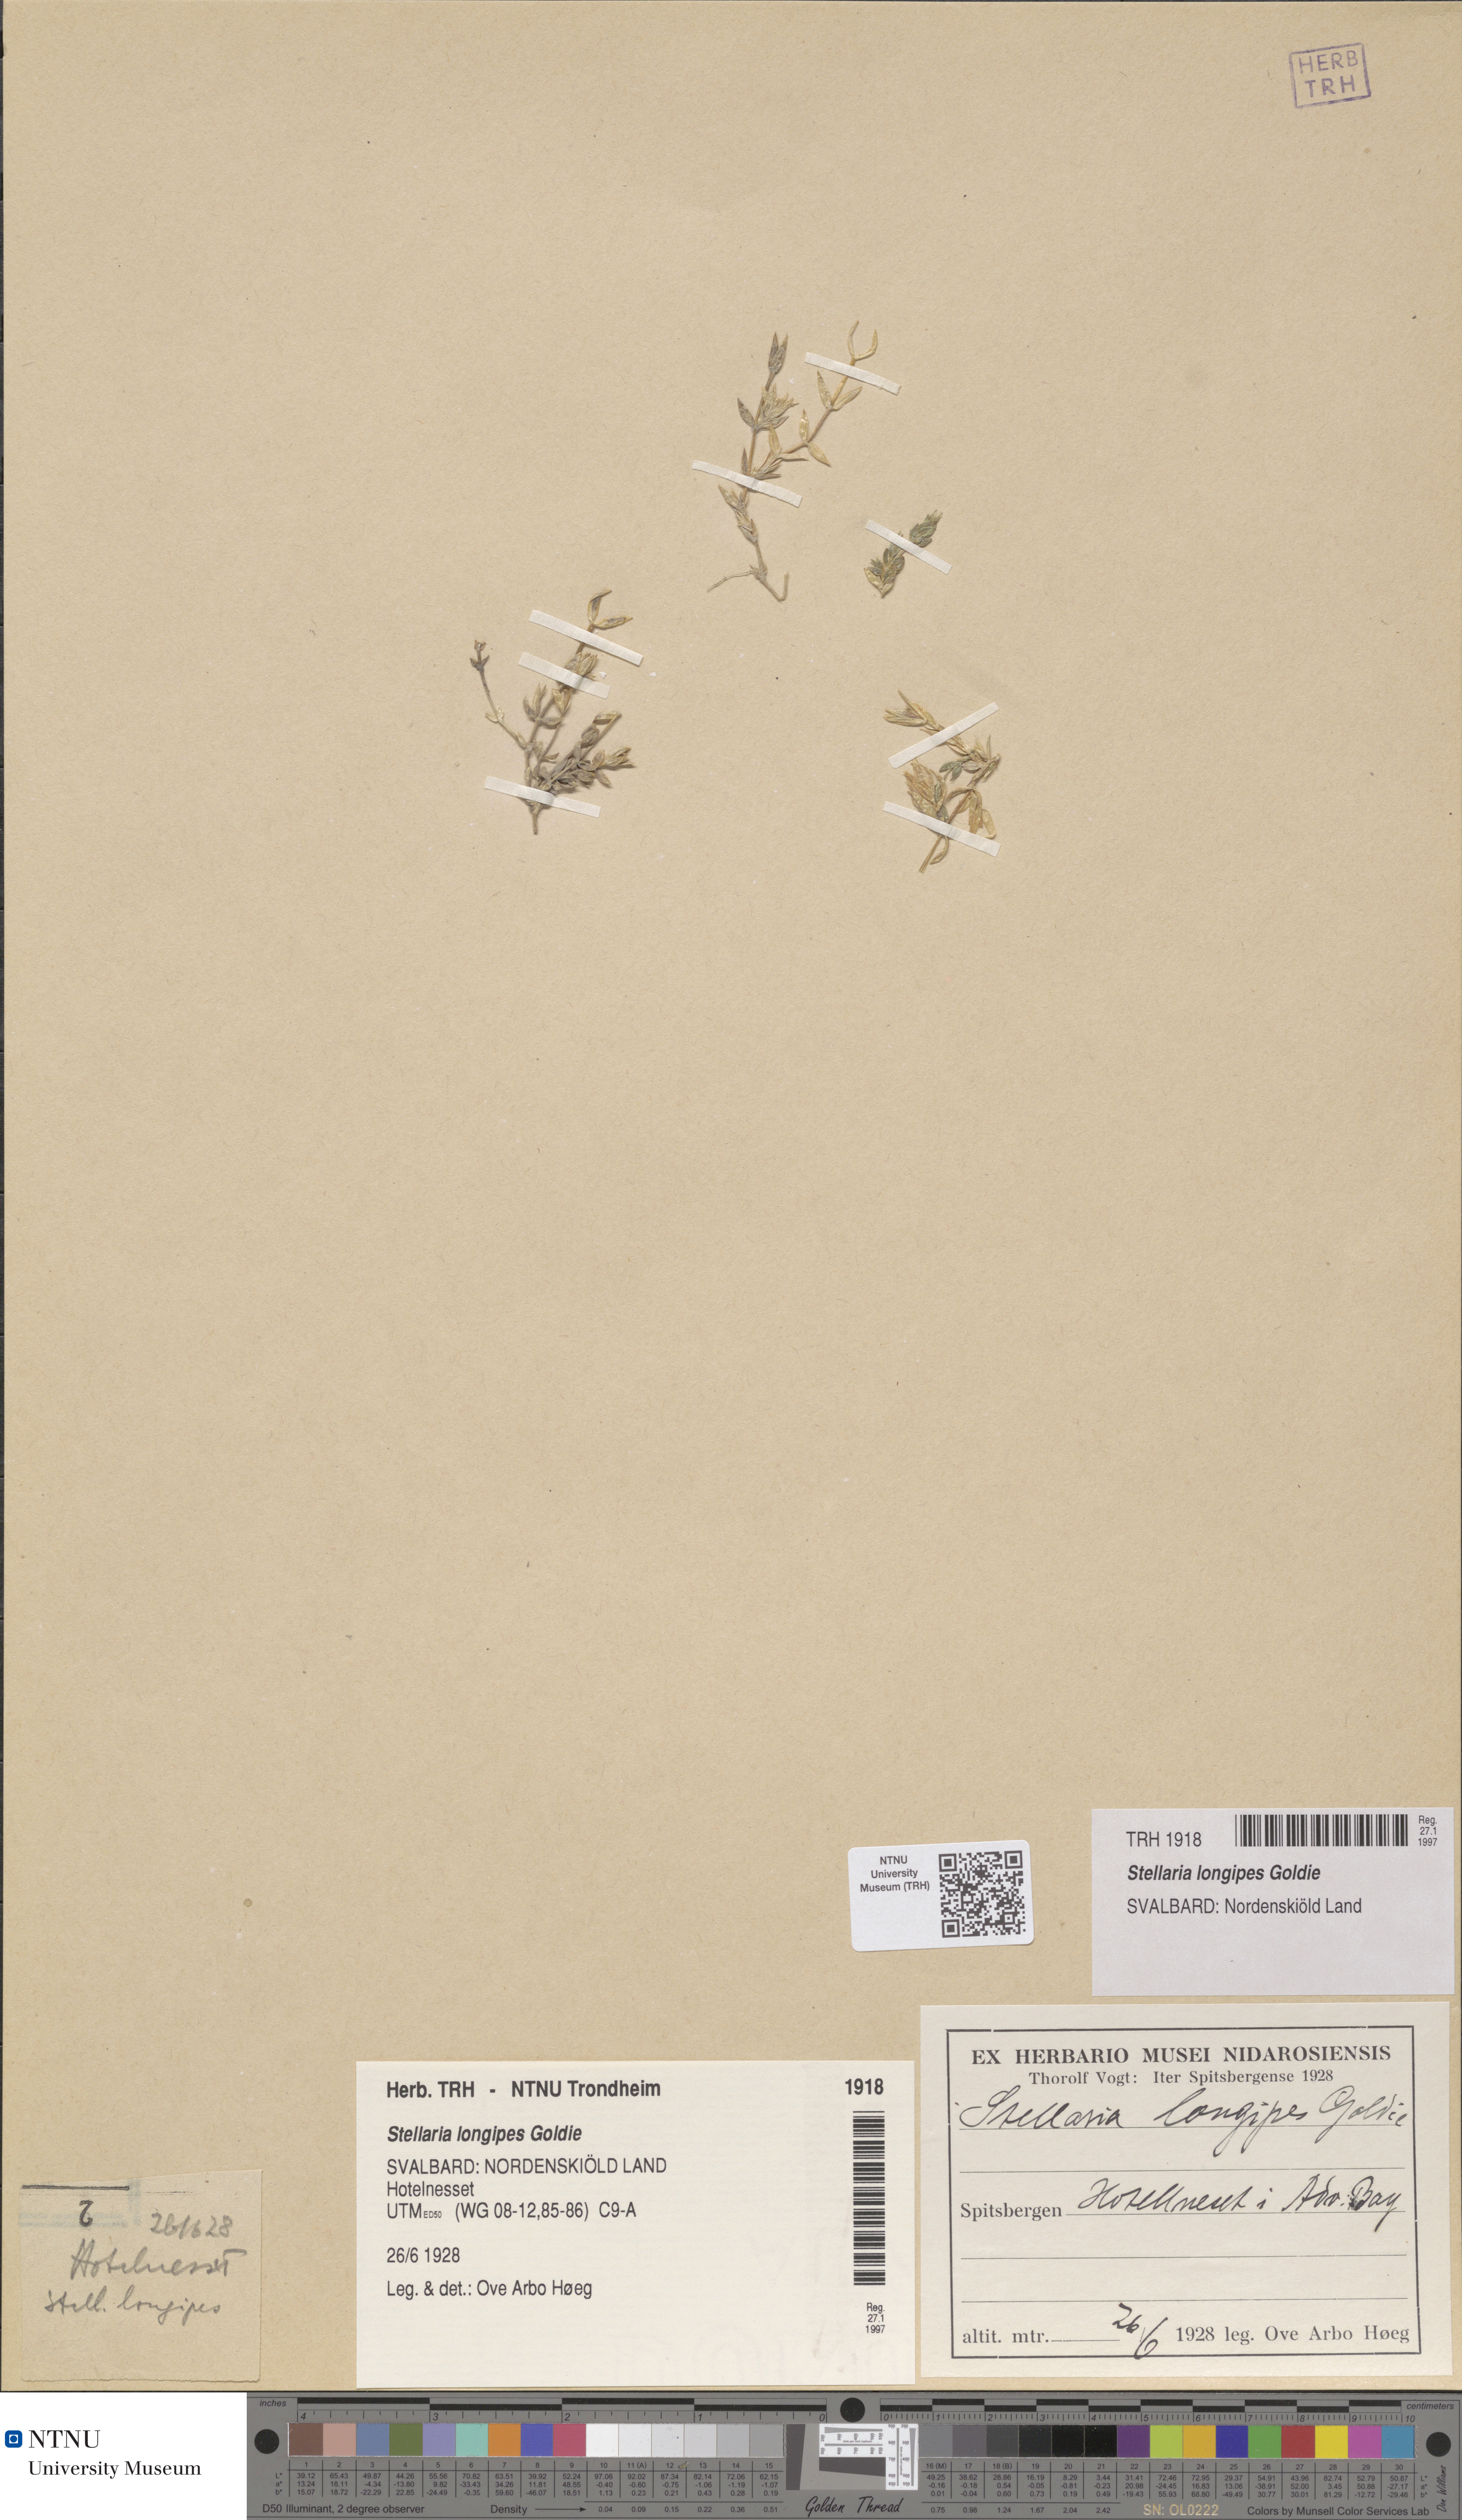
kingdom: Plantae
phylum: Tracheophyta
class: Magnoliopsida
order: Caryophyllales
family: Caryophyllaceae
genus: Stellaria
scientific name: Stellaria longipes
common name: Goldie's starwort
